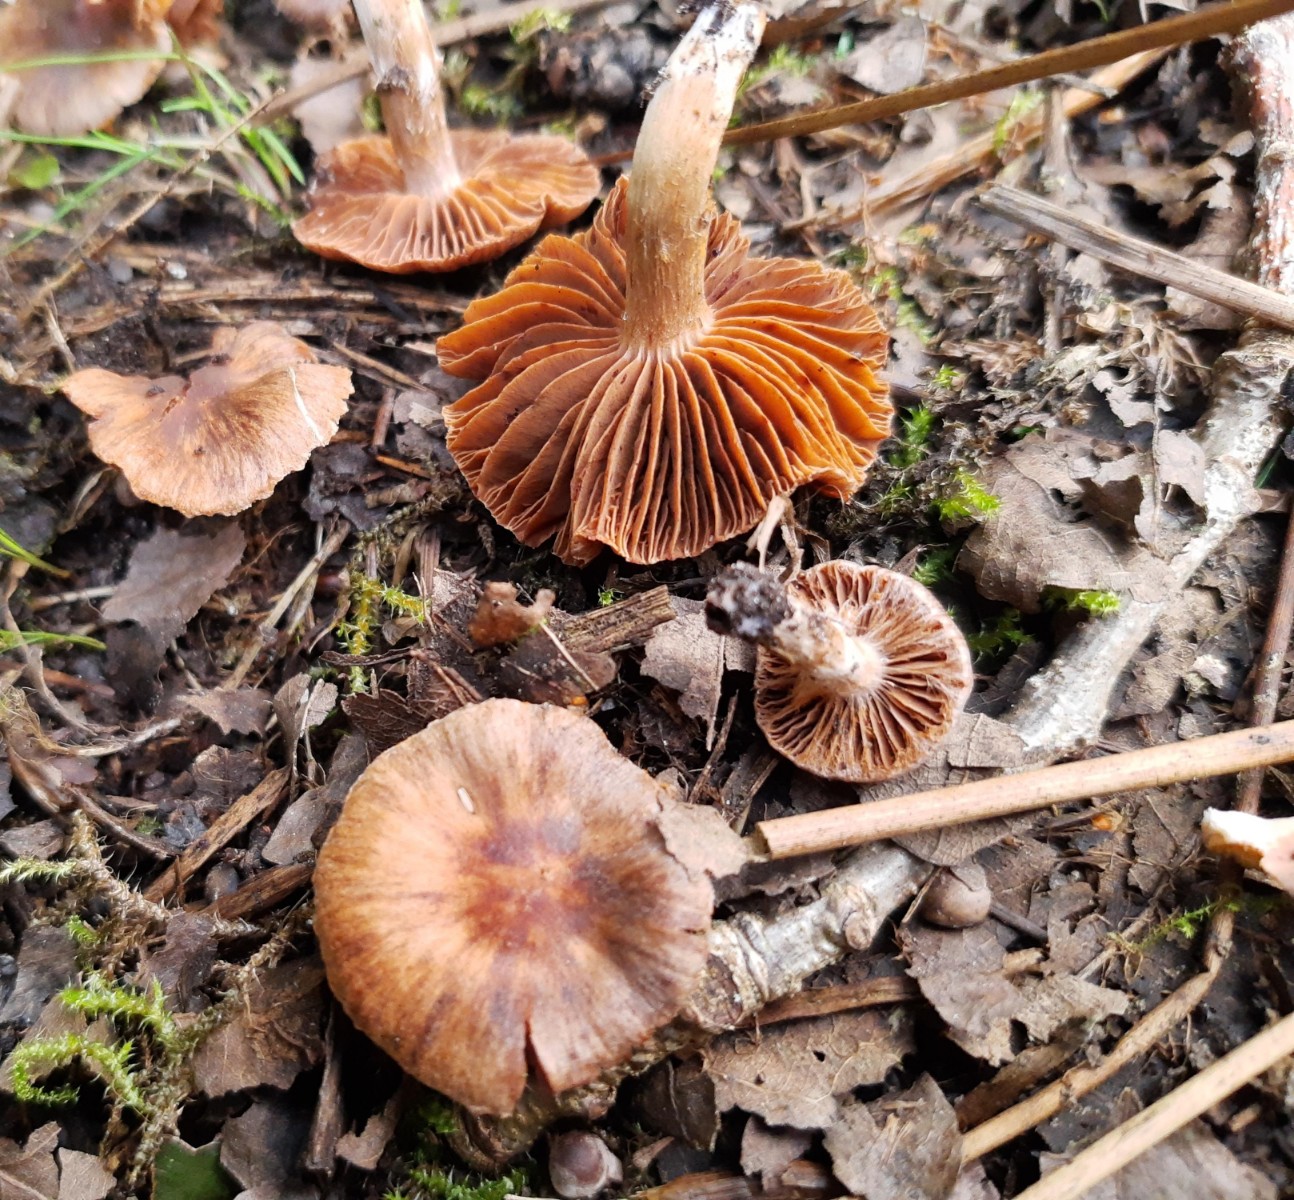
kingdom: Fungi
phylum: Basidiomycota
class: Agaricomycetes
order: Agaricales
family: Cortinariaceae
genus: Cortinarius
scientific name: Cortinarius pseudofusisporus
